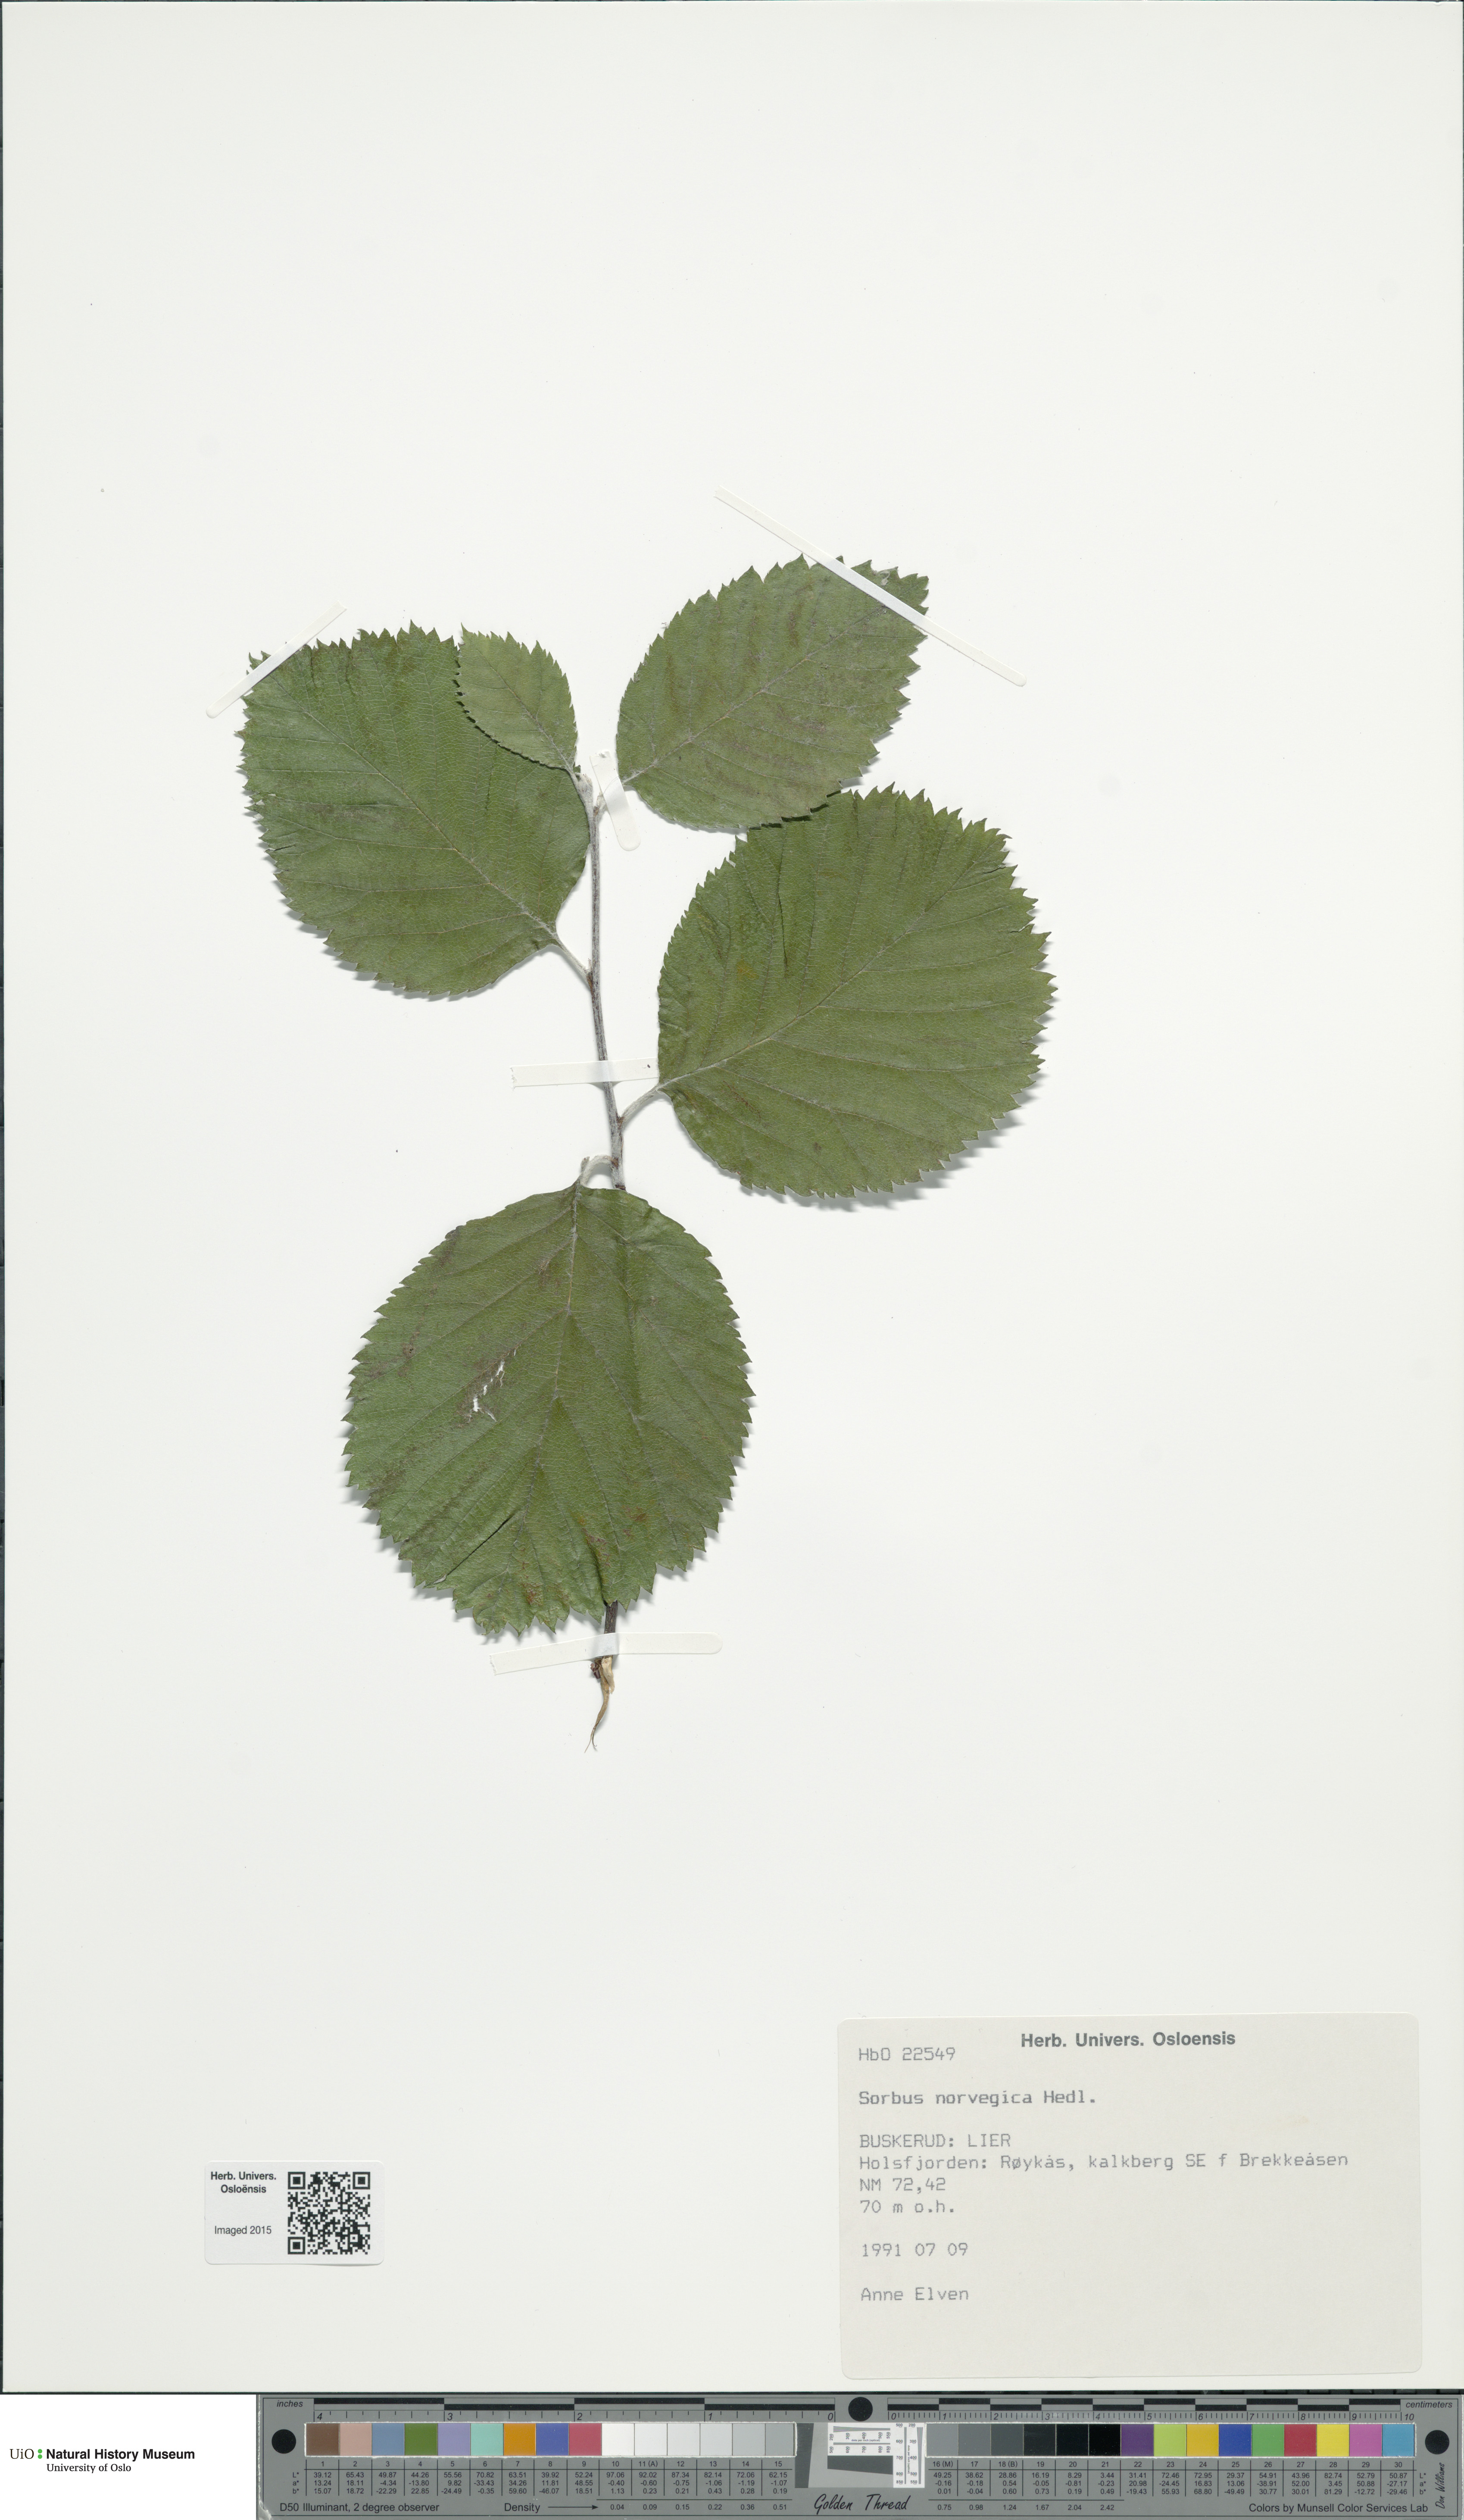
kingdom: Plantae
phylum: Tracheophyta
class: Magnoliopsida
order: Rosales
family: Rosaceae
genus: Aria
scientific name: Aria obtusifolia
